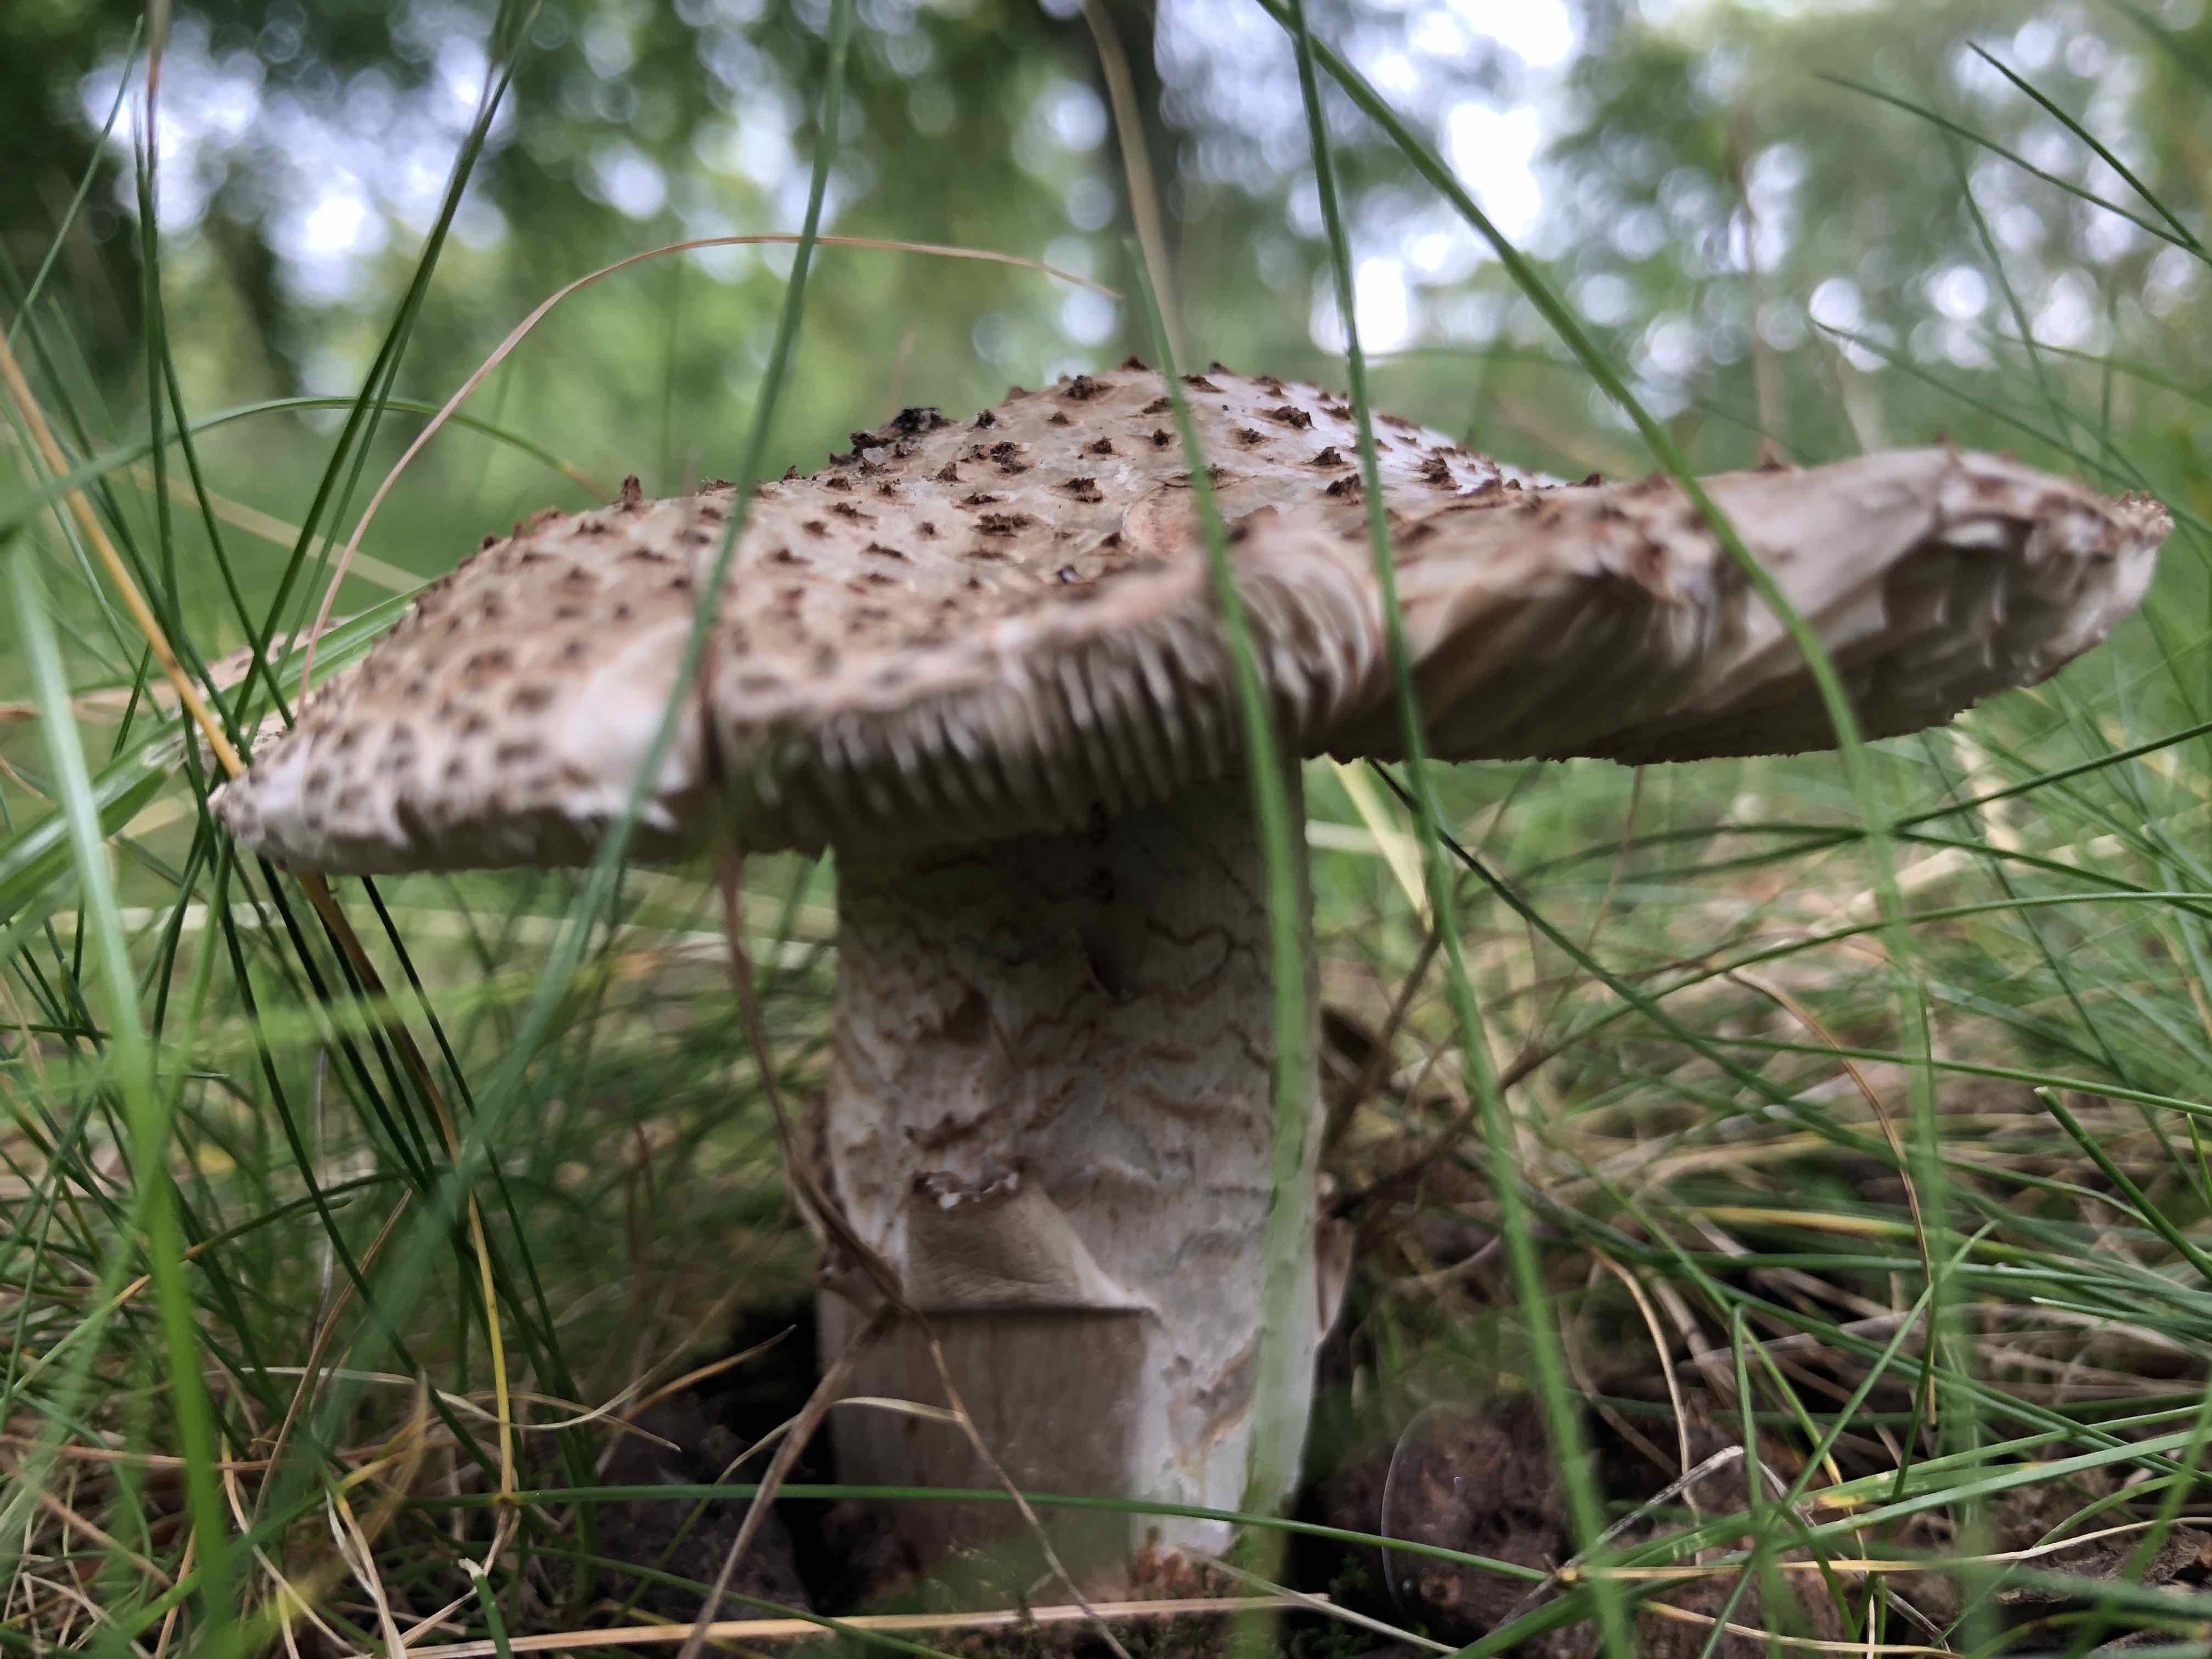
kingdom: Fungi
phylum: Basidiomycota
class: Agaricomycetes
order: Agaricales
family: Amanitaceae
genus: Amanita
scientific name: Amanita rubescens
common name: rødmende fluesvamp
